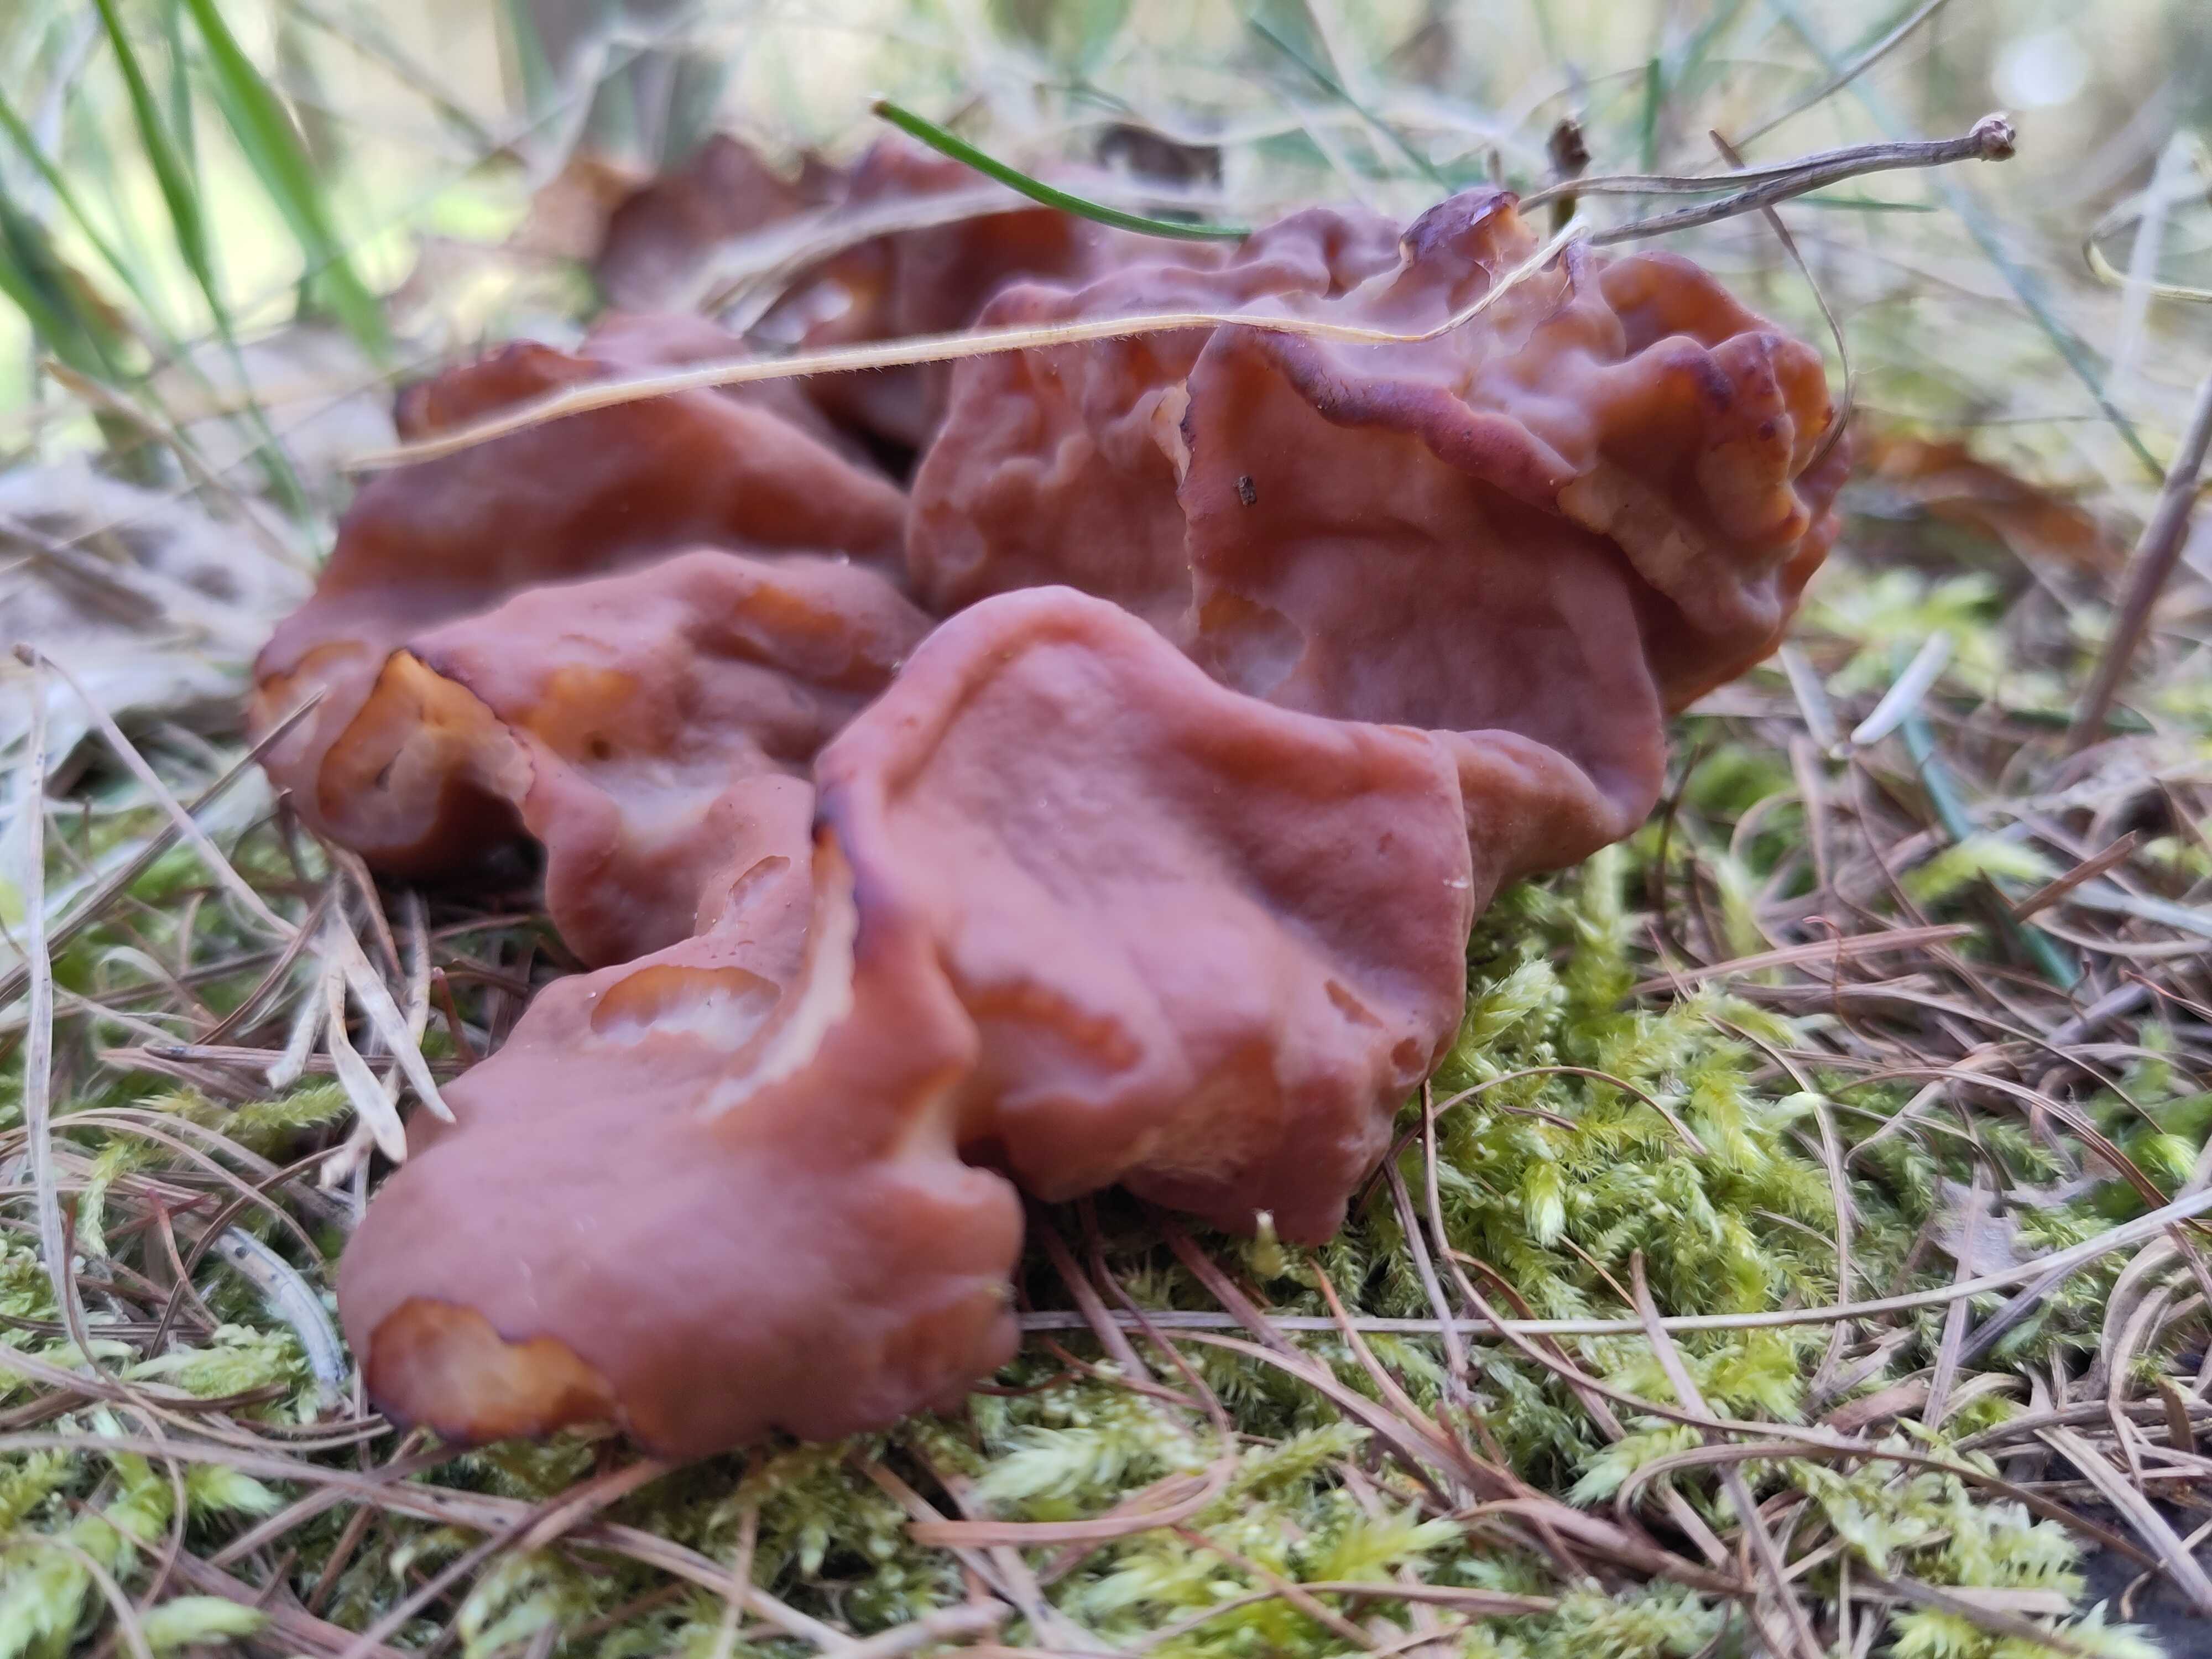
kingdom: Fungi
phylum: Ascomycota
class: Pezizomycetes
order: Pezizales
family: Discinaceae
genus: Discina
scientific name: Discina ancilis
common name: udbredt stenmorkel
